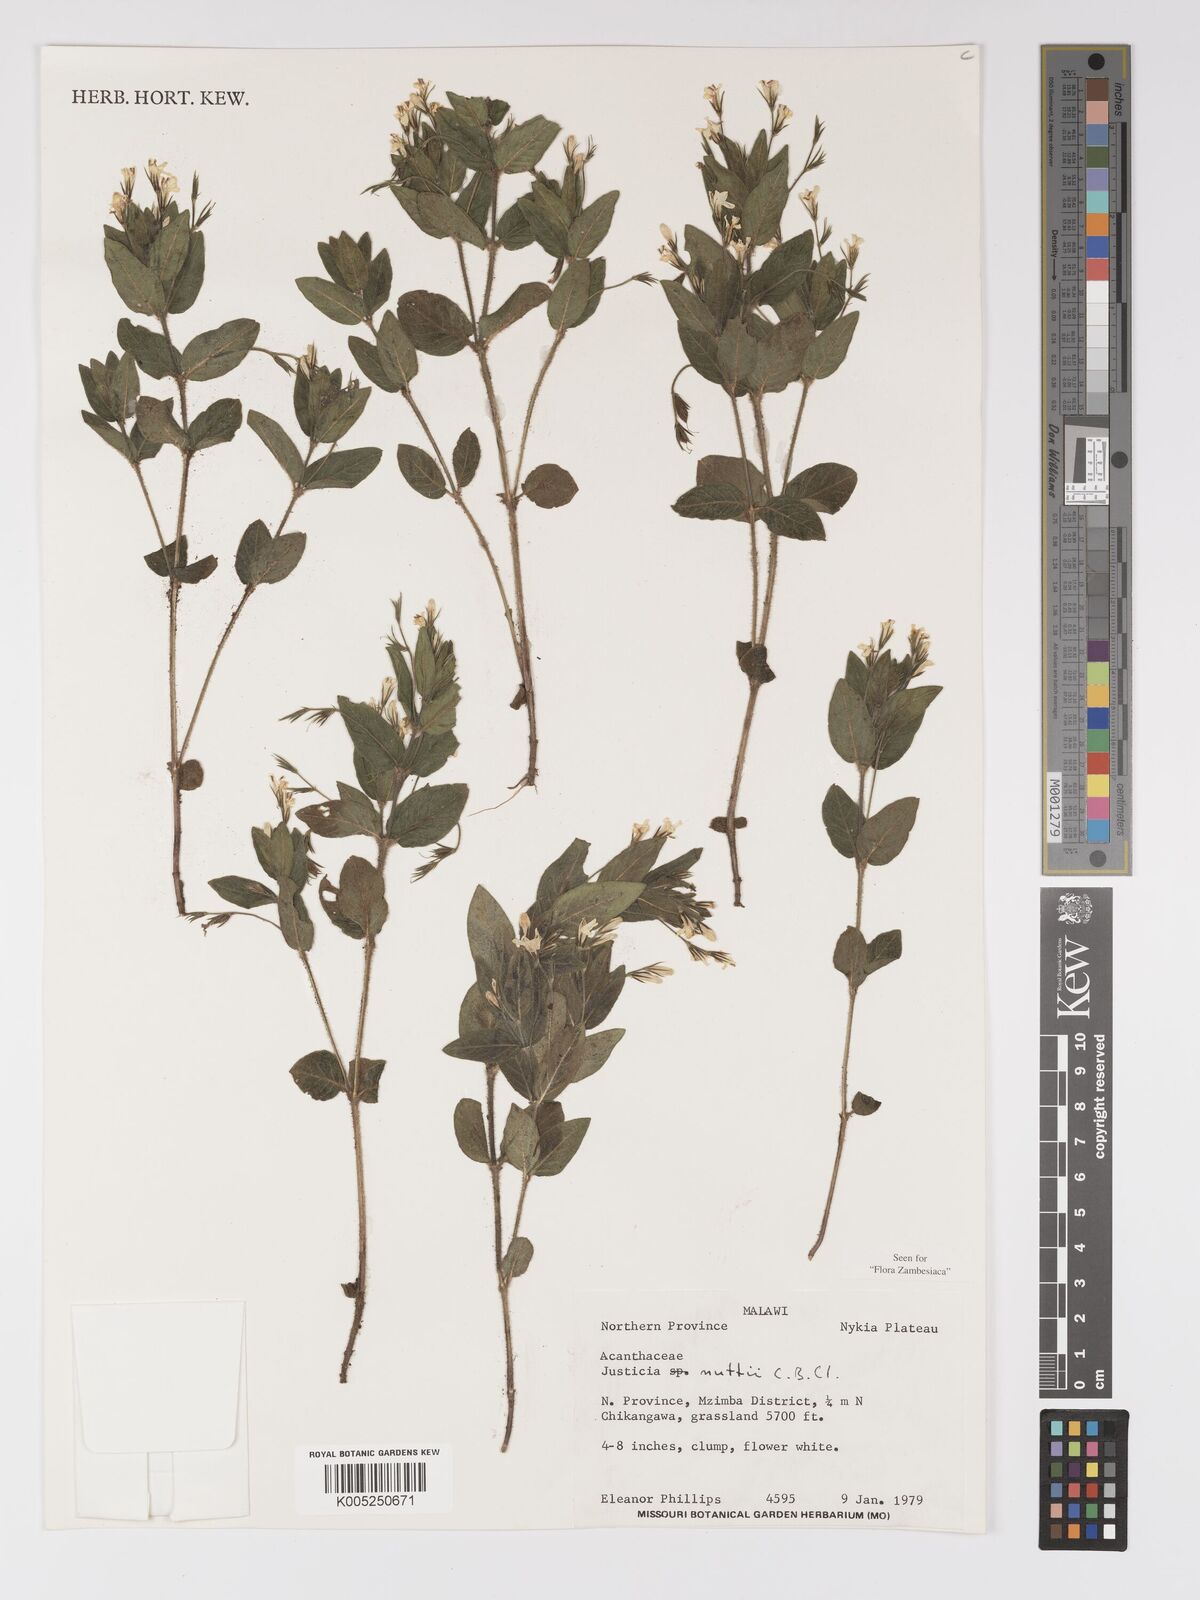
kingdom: Plantae
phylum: Tracheophyta
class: Magnoliopsida
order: Lamiales
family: Acanthaceae
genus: Justicia
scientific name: Justicia nuttii
